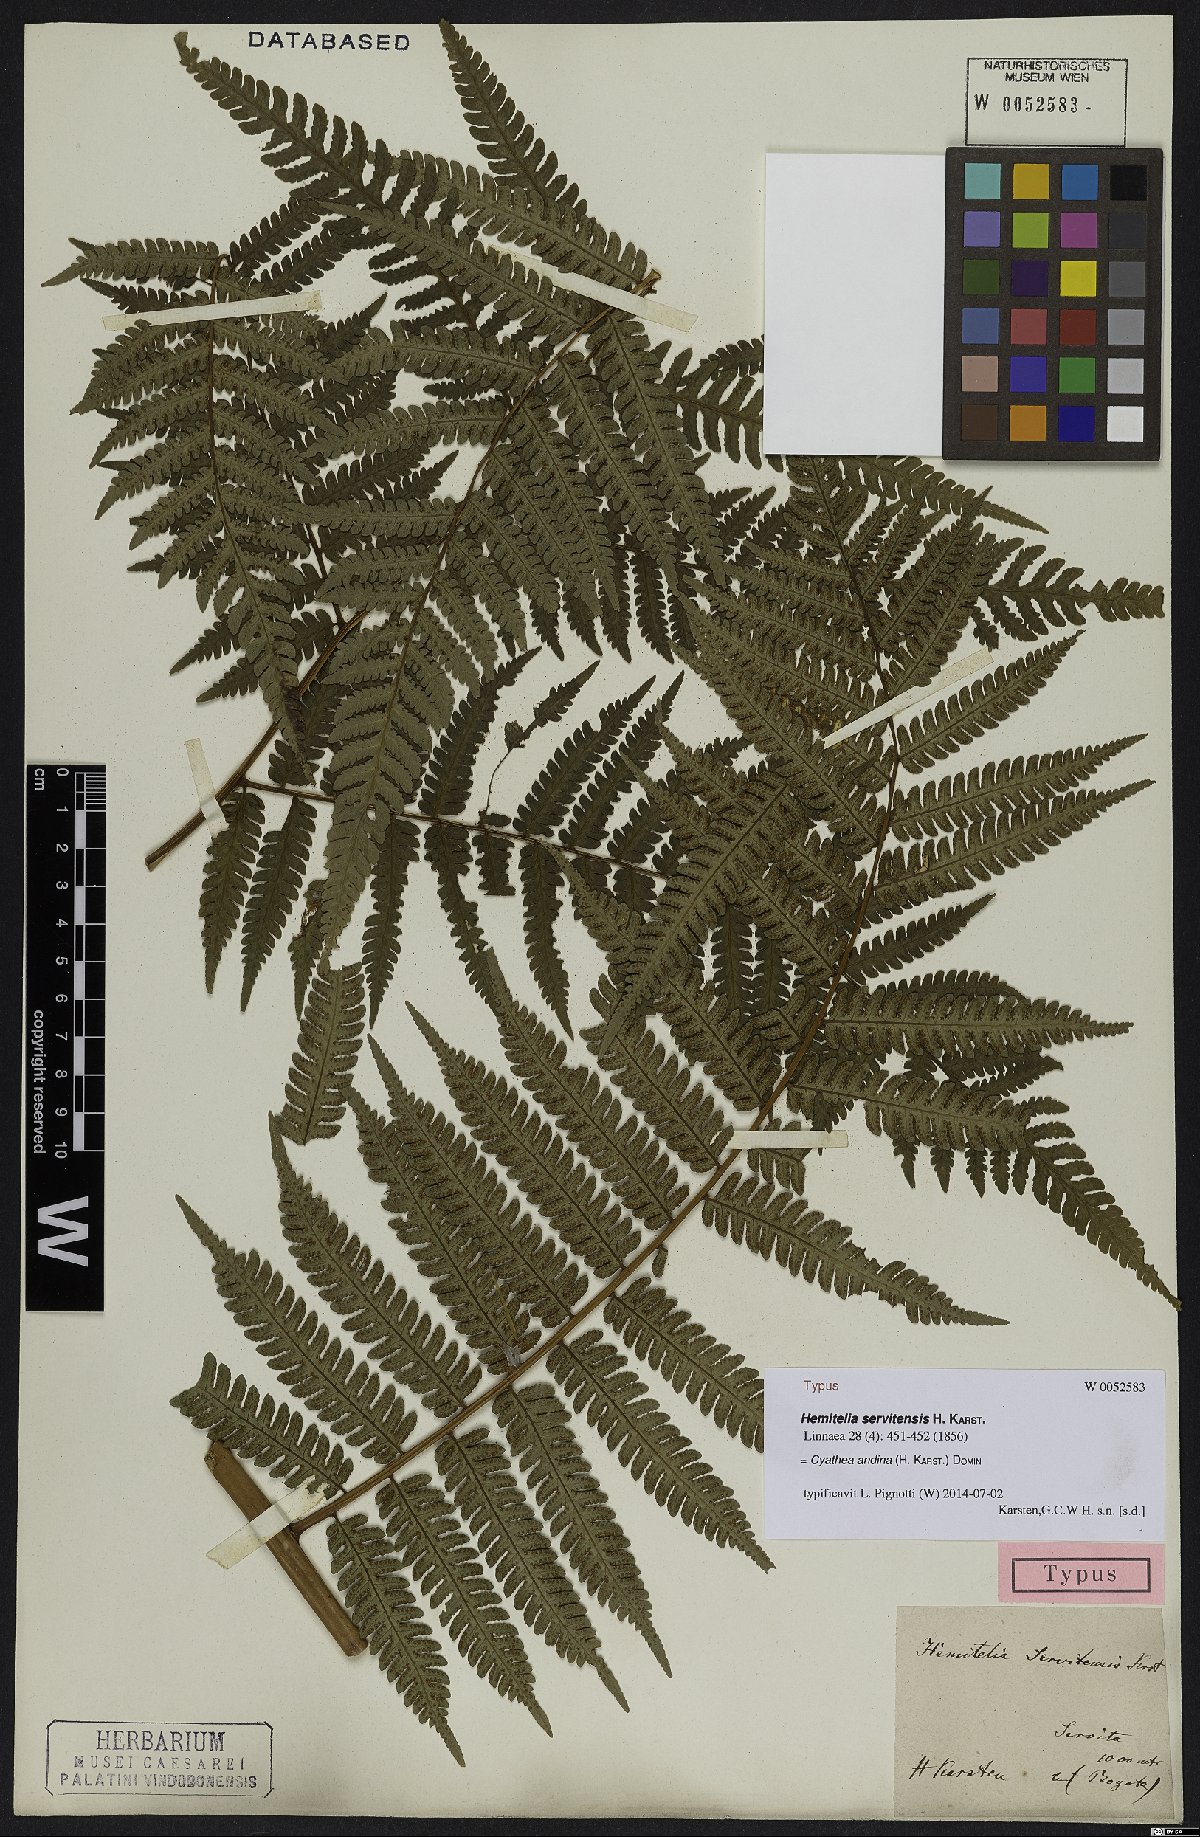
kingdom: Plantae
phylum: Tracheophyta
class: Polypodiopsida
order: Cyatheales
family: Cyatheaceae
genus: Cyathea
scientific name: Cyathea andina
